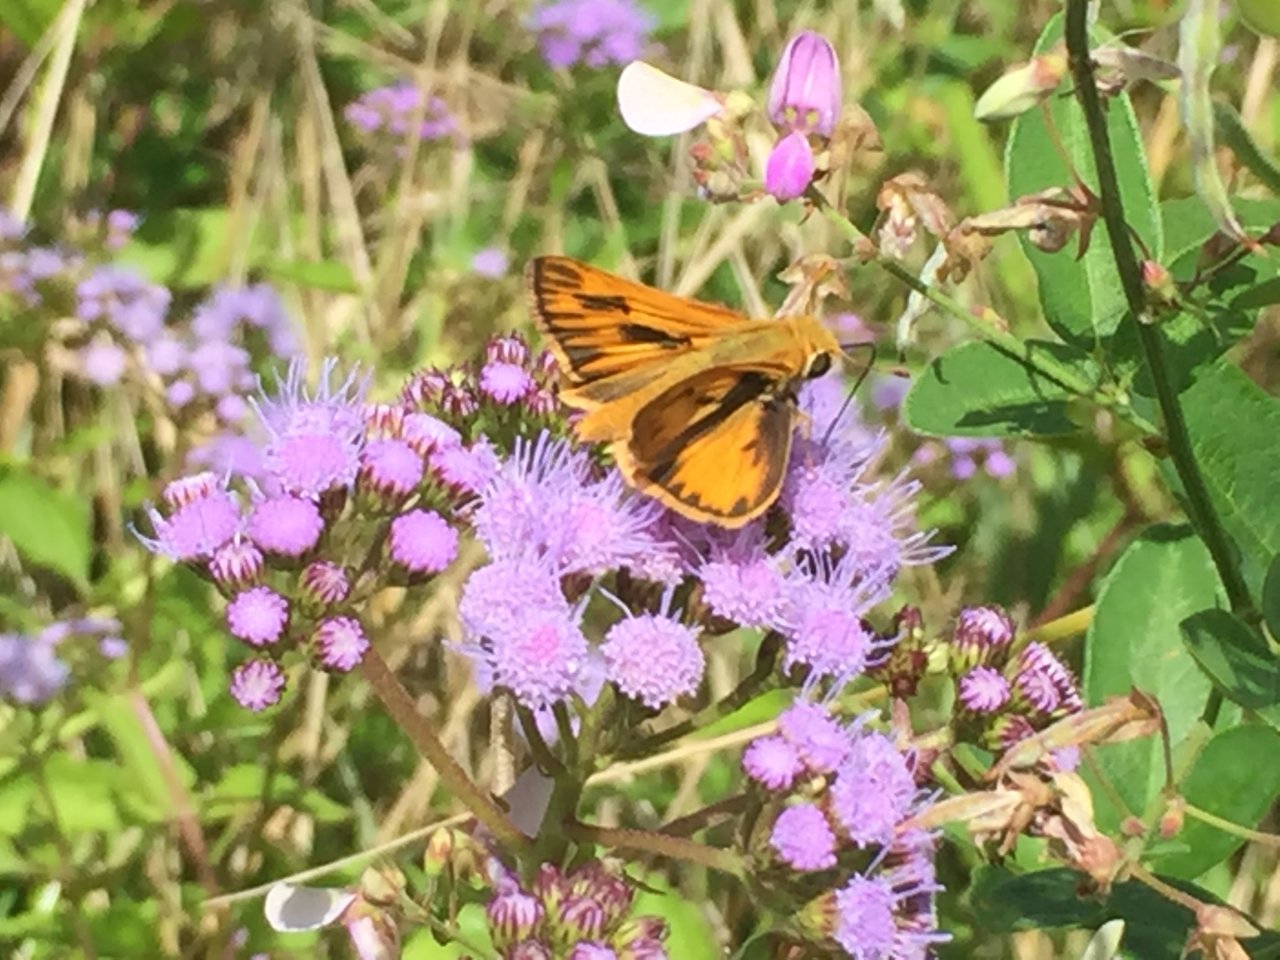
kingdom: Animalia
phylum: Arthropoda
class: Insecta
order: Lepidoptera
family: Hesperiidae
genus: Hylephila
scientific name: Hylephila phyleus
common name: Fiery Skipper
